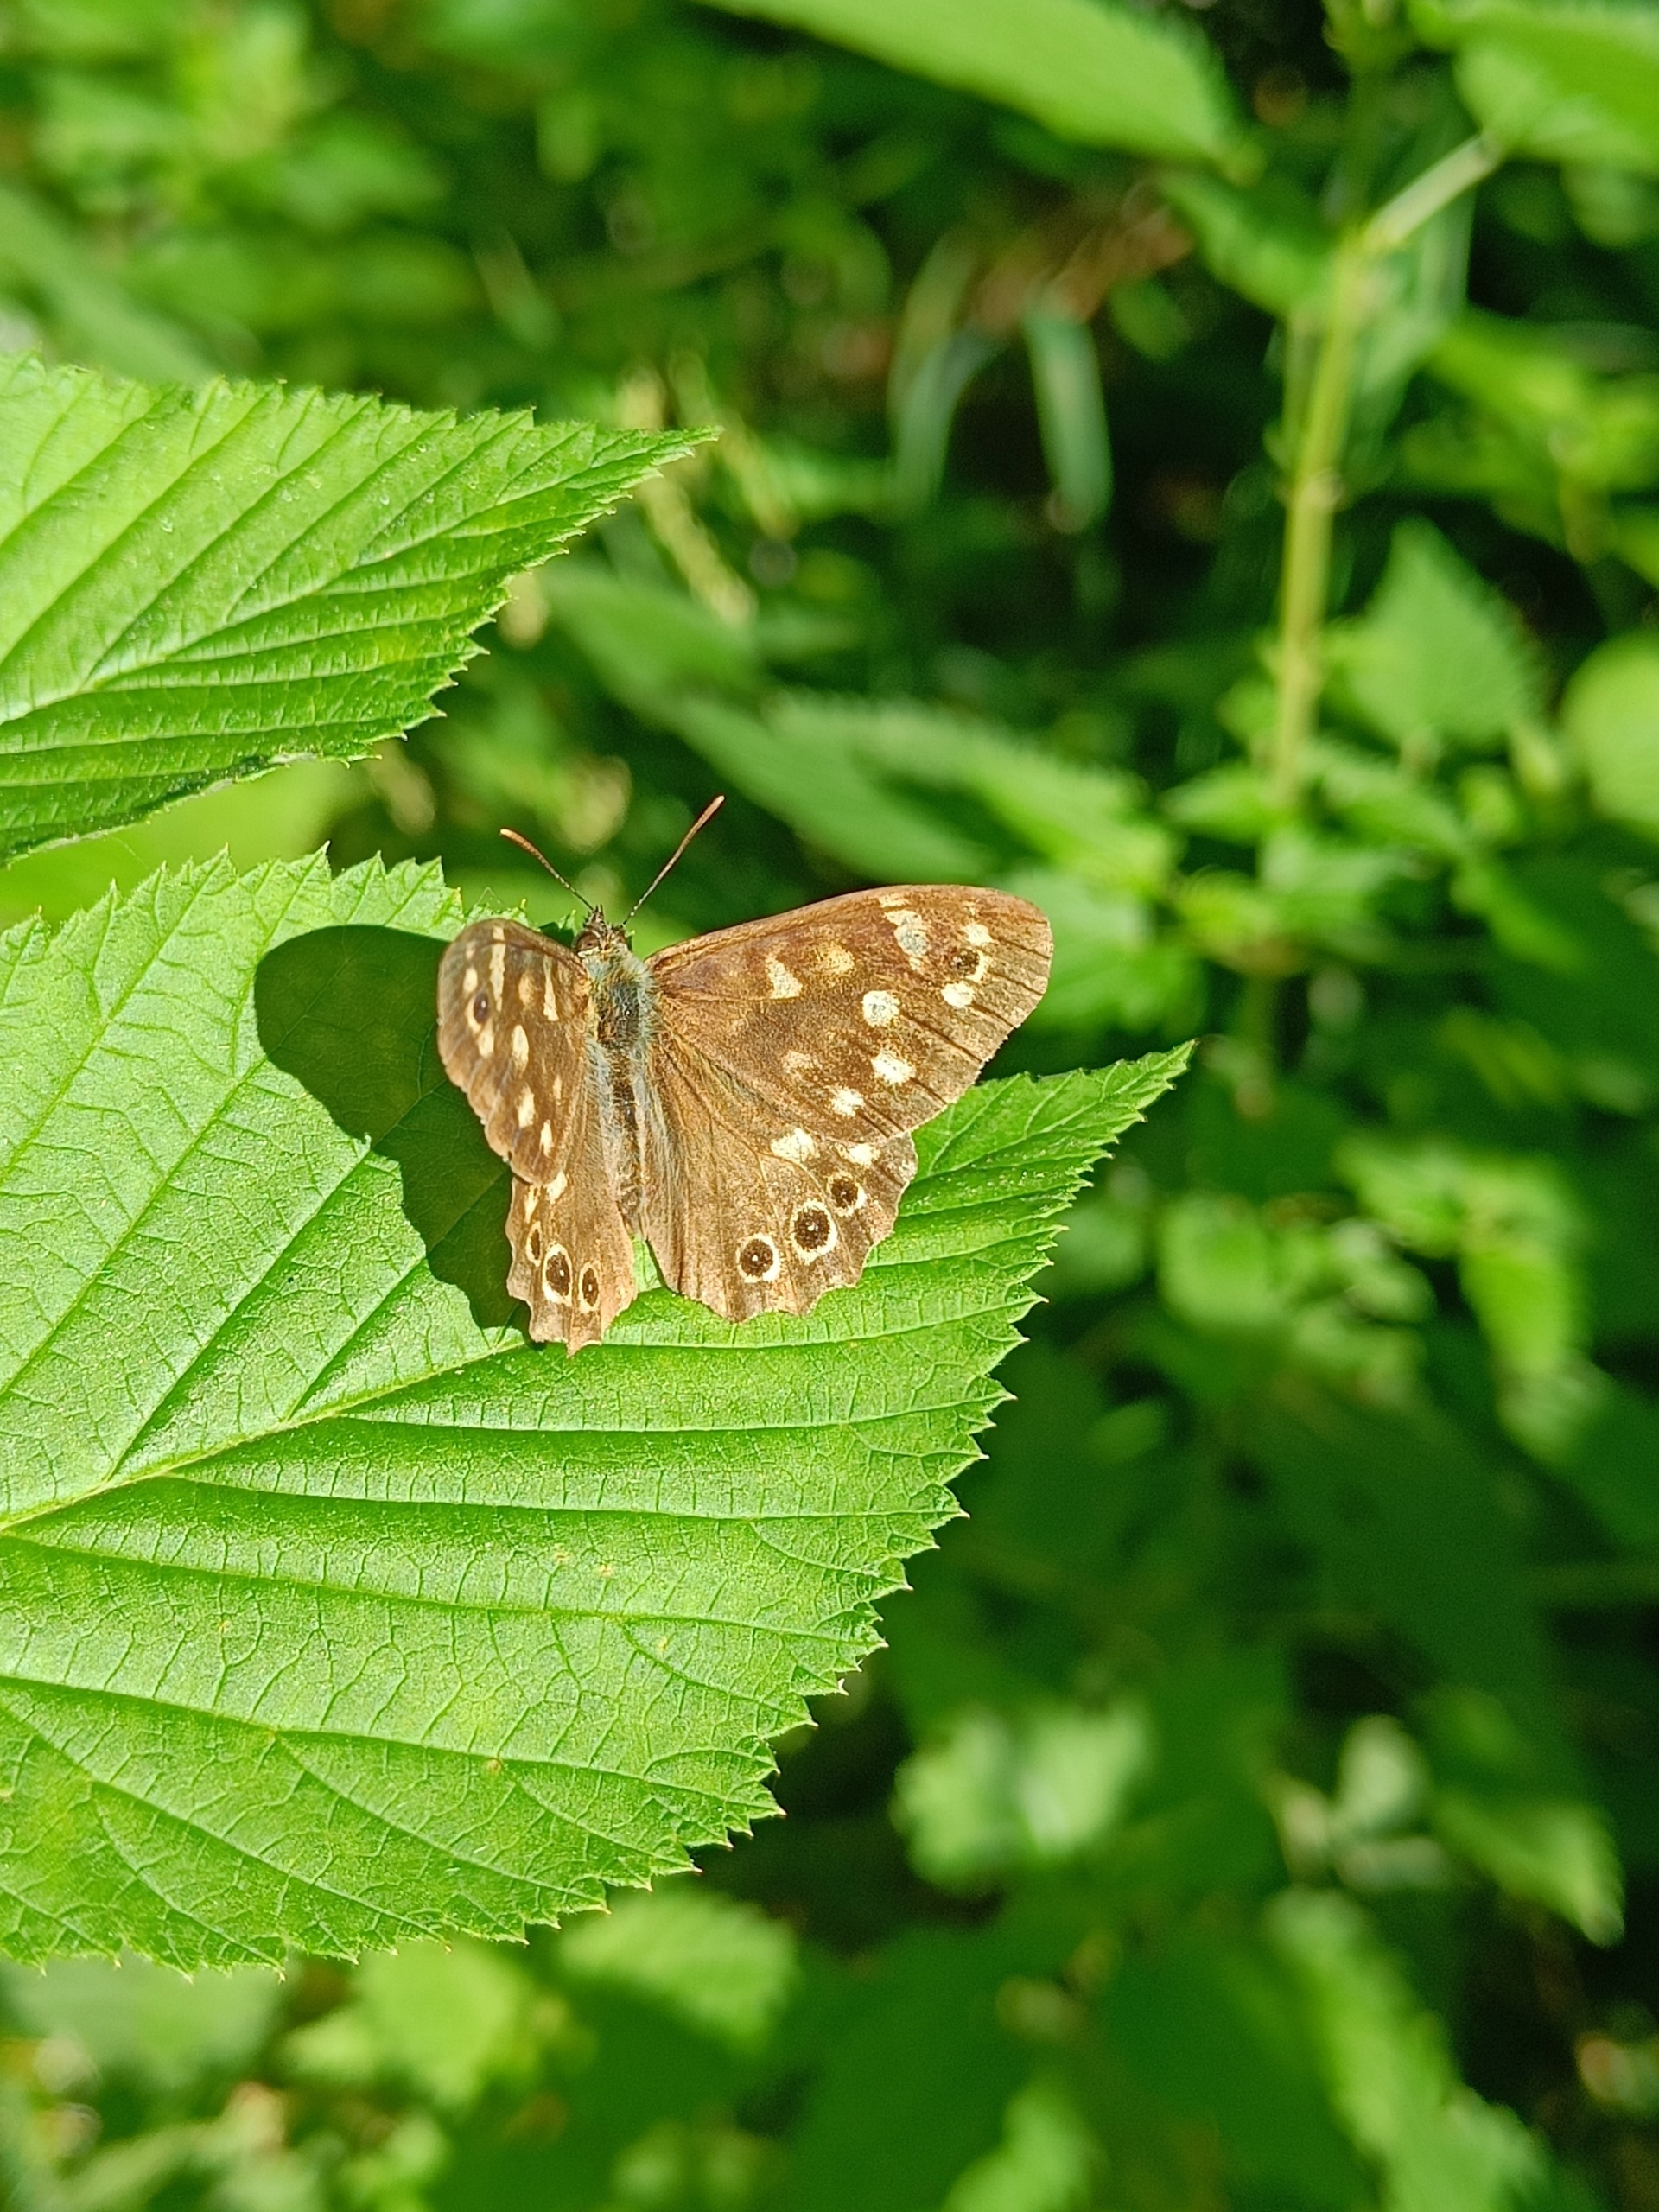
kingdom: Animalia
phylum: Arthropoda
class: Insecta
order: Lepidoptera
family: Nymphalidae
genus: Pararge
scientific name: Pararge aegeria
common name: Skovrandøje
